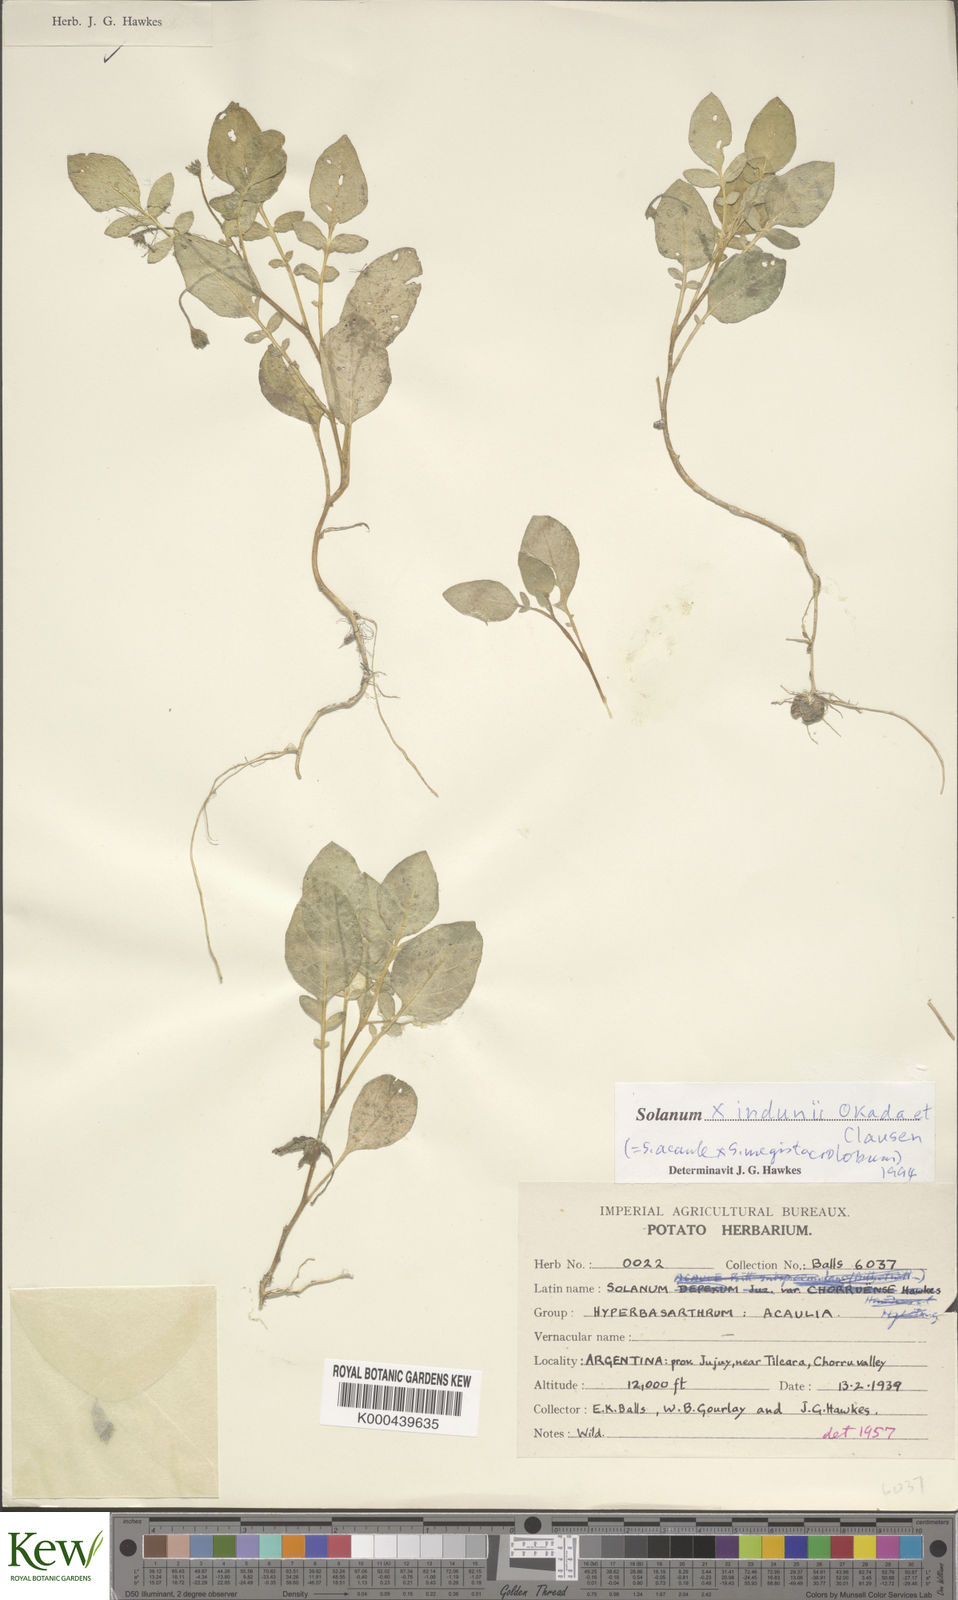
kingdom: Plantae
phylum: Tracheophyta
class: Magnoliopsida
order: Solanales
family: Solanaceae
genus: Solanum
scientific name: Solanum
